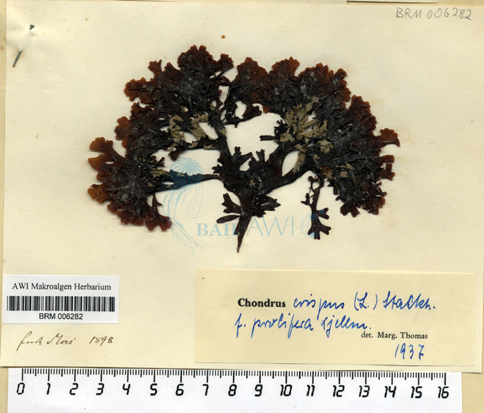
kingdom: Plantae
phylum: Rhodophyta
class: Florideophyceae
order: Gigartinales
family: Gigartinaceae
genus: Chondrus
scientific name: Chondrus crispus
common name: Carrageen
